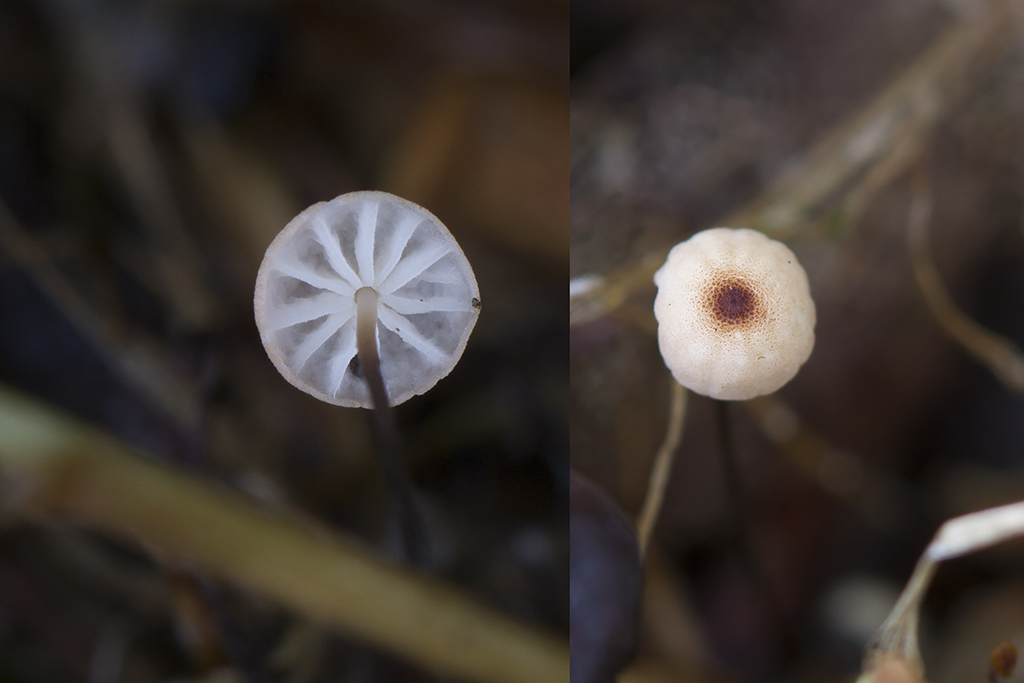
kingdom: Fungi
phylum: Basidiomycota
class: Agaricomycetes
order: Agaricales
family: Marasmiaceae
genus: Marasmius
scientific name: Marasmius curreyi
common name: teglrød bruskhat
